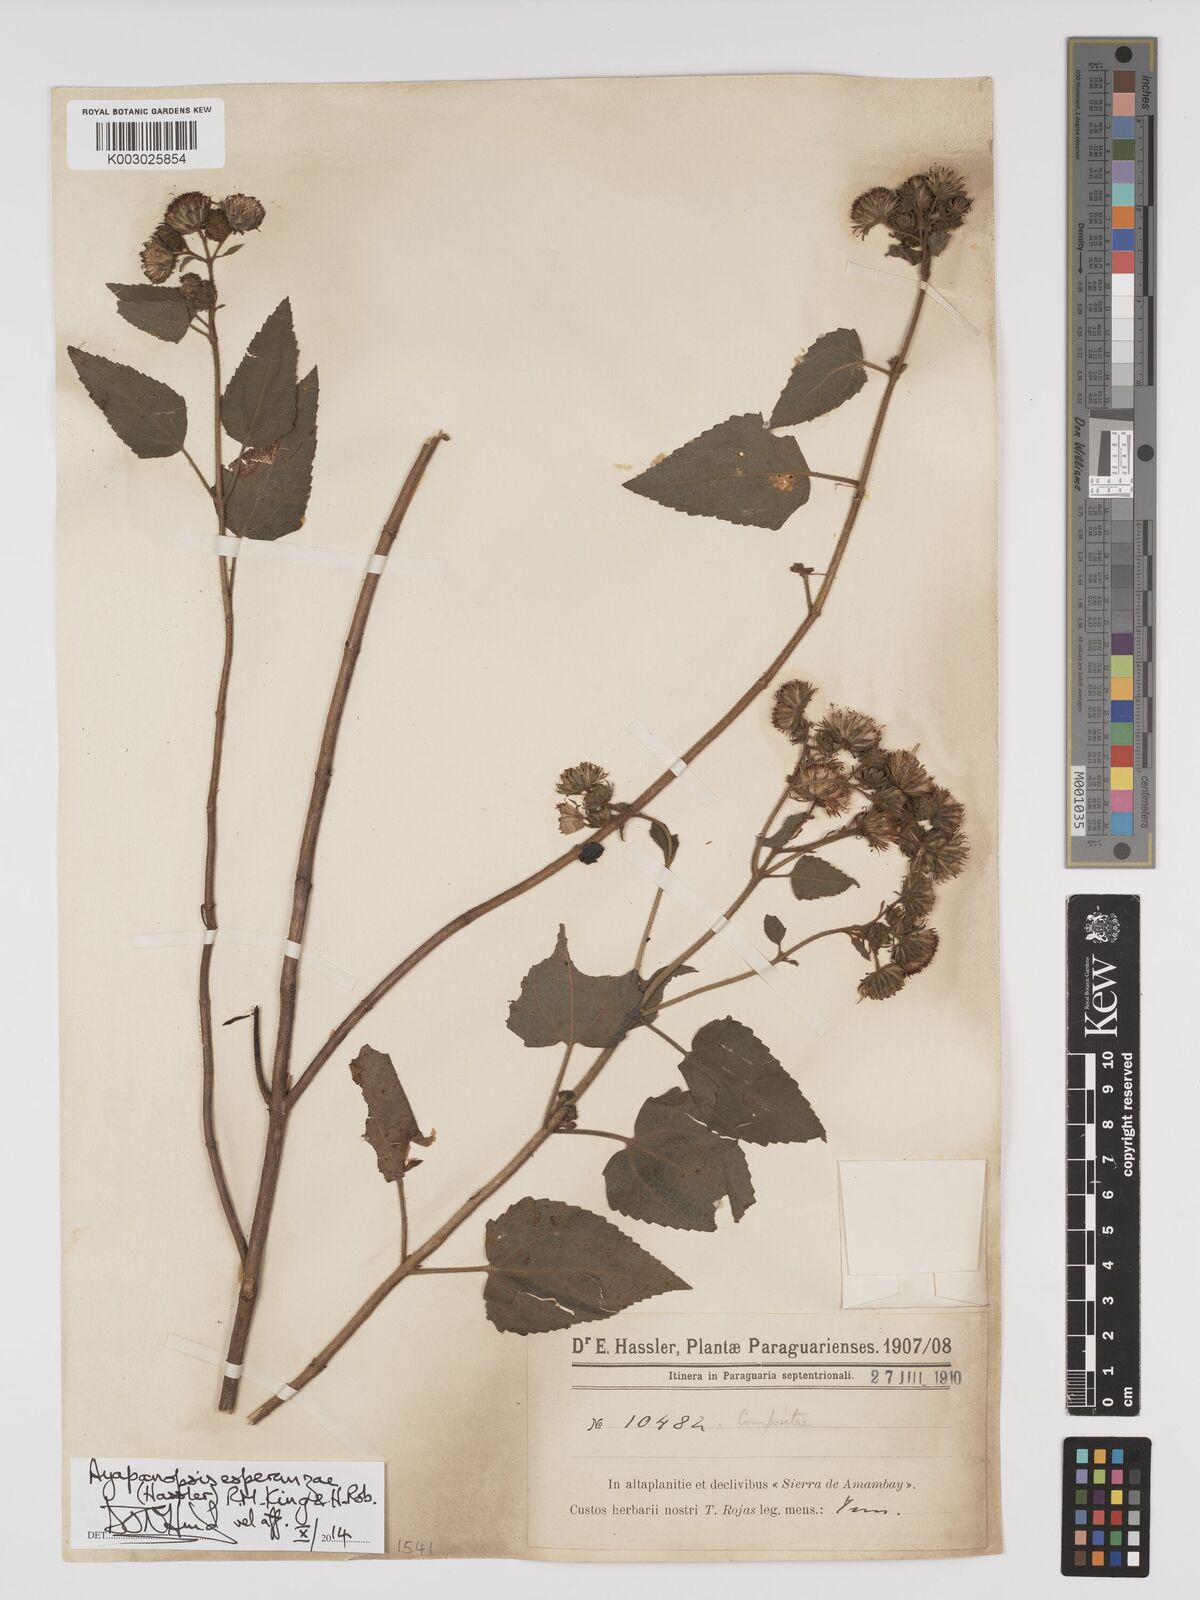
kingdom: Plantae
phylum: Tracheophyta
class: Magnoliopsida
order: Asterales
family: Asteraceae
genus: Ayapanopsis
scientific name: Ayapanopsis esperanzae
